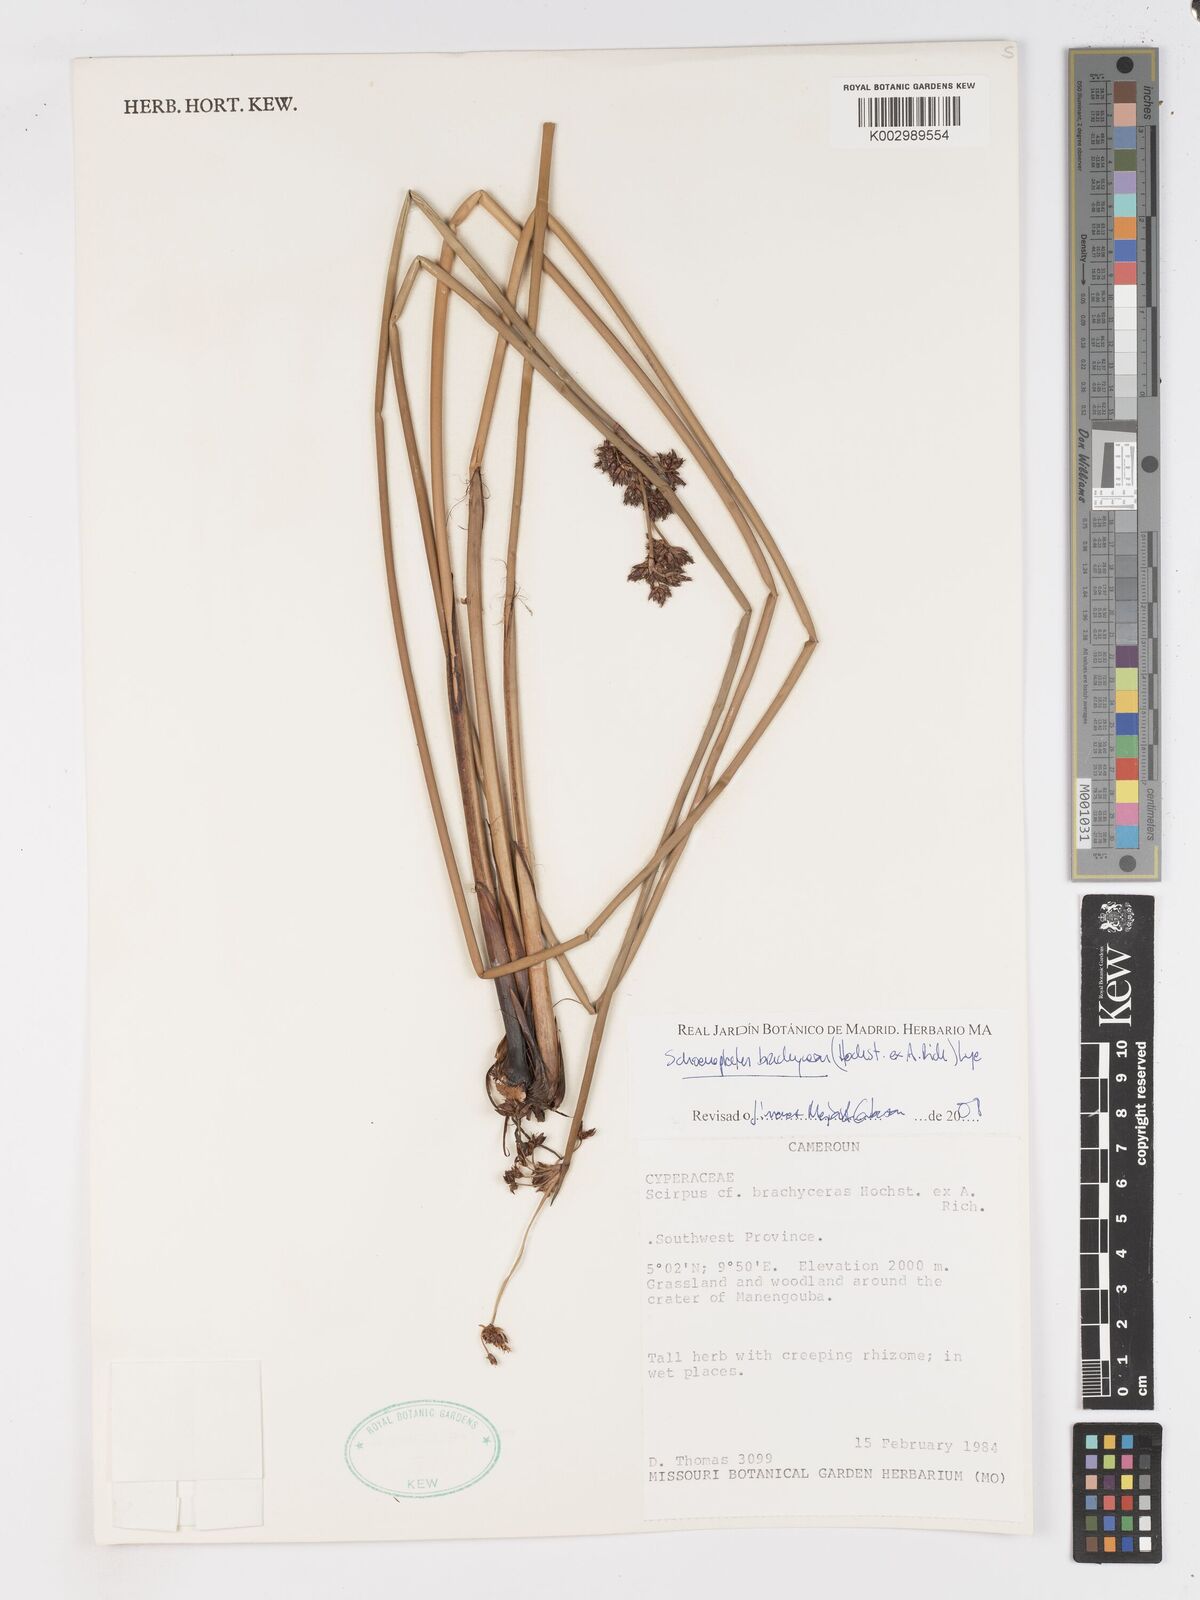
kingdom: Plantae
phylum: Tracheophyta
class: Liliopsida
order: Poales
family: Cyperaceae
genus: Schoenoplectiella
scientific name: Schoenoplectiella corymbosa
